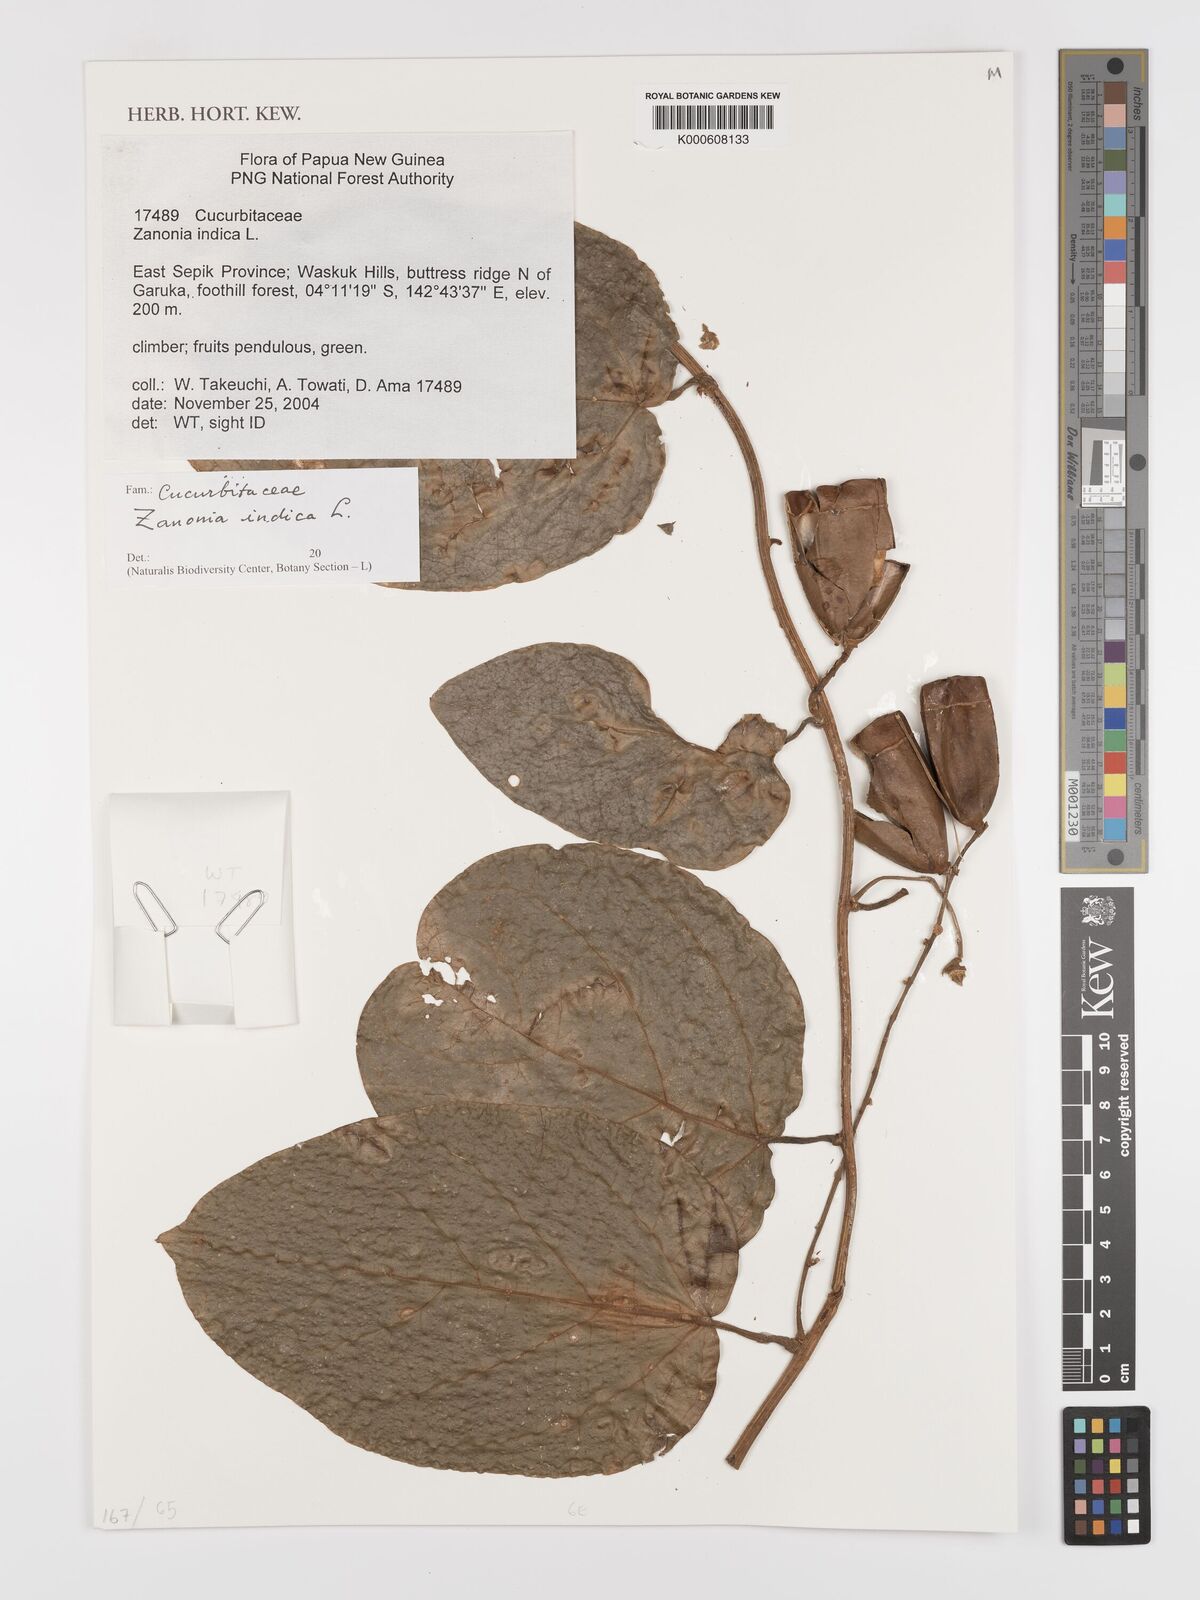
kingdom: Plantae
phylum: Tracheophyta
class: Magnoliopsida
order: Cucurbitales
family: Cucurbitaceae
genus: Zanonia
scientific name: Zanonia indica
